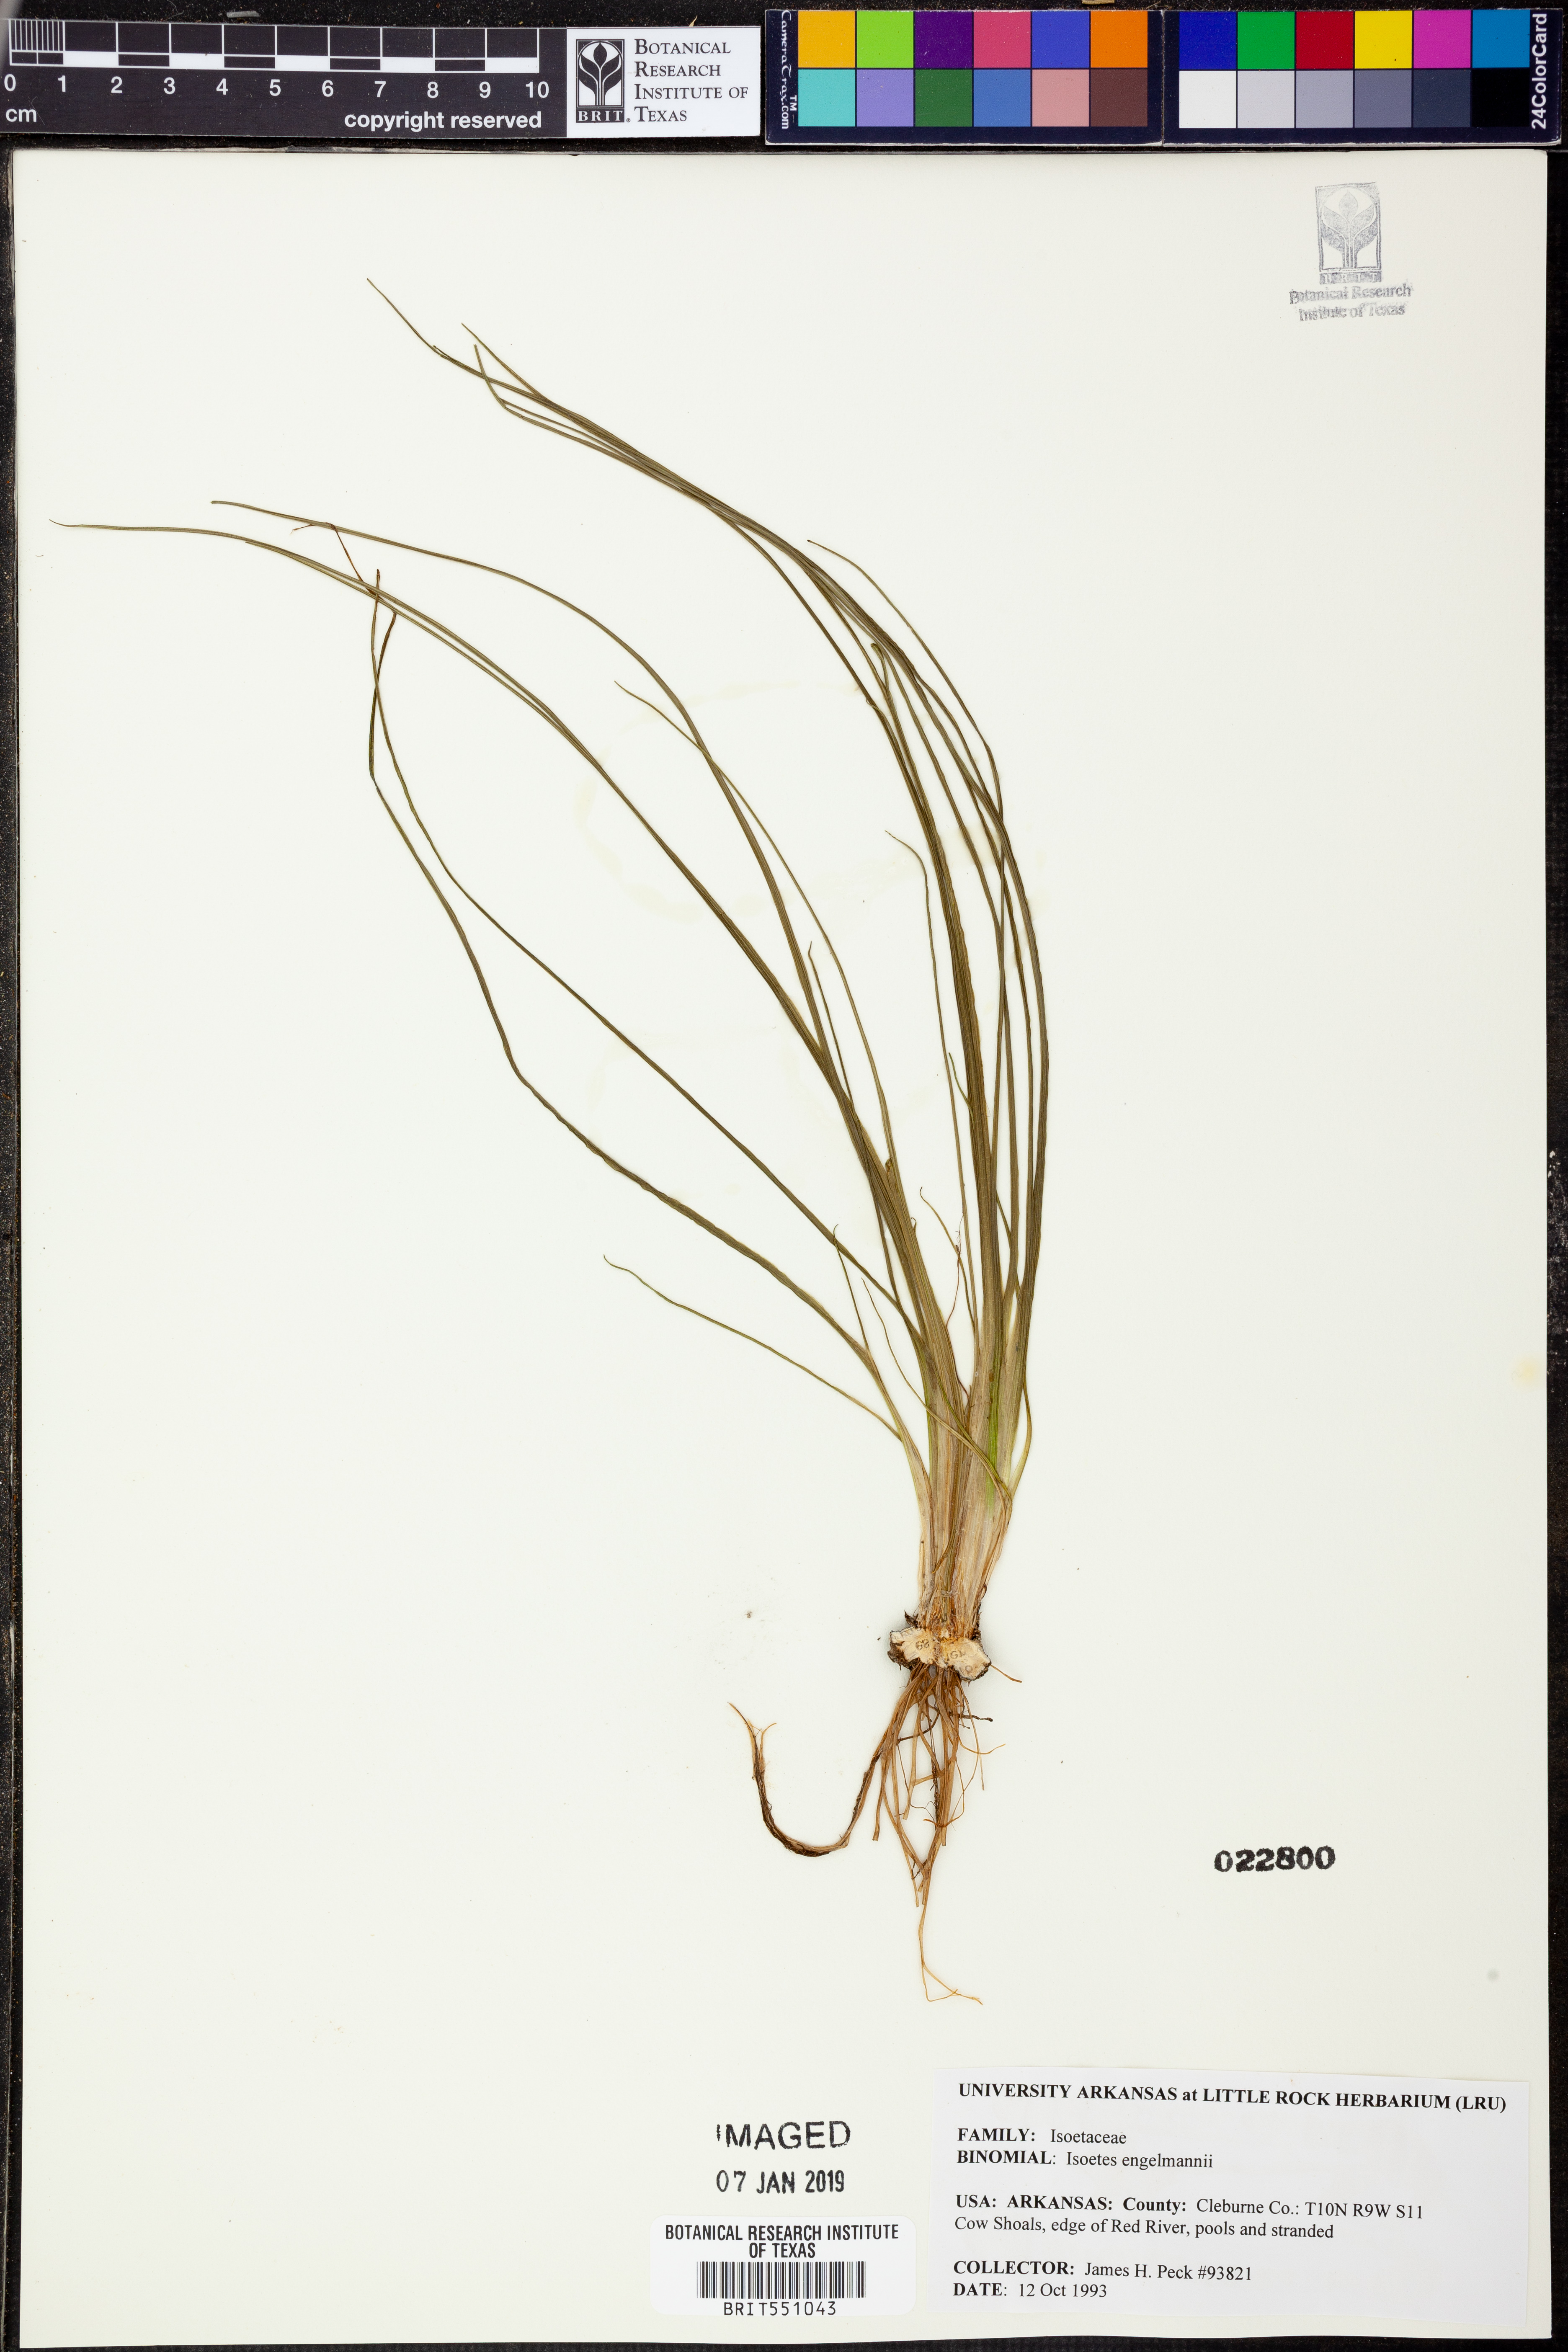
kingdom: Plantae
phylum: Tracheophyta
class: Lycopodiopsida
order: Isoetales
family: Isoetaceae
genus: Isoetes
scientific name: Isoetes engelmannii
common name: Engelmann's quillwort
